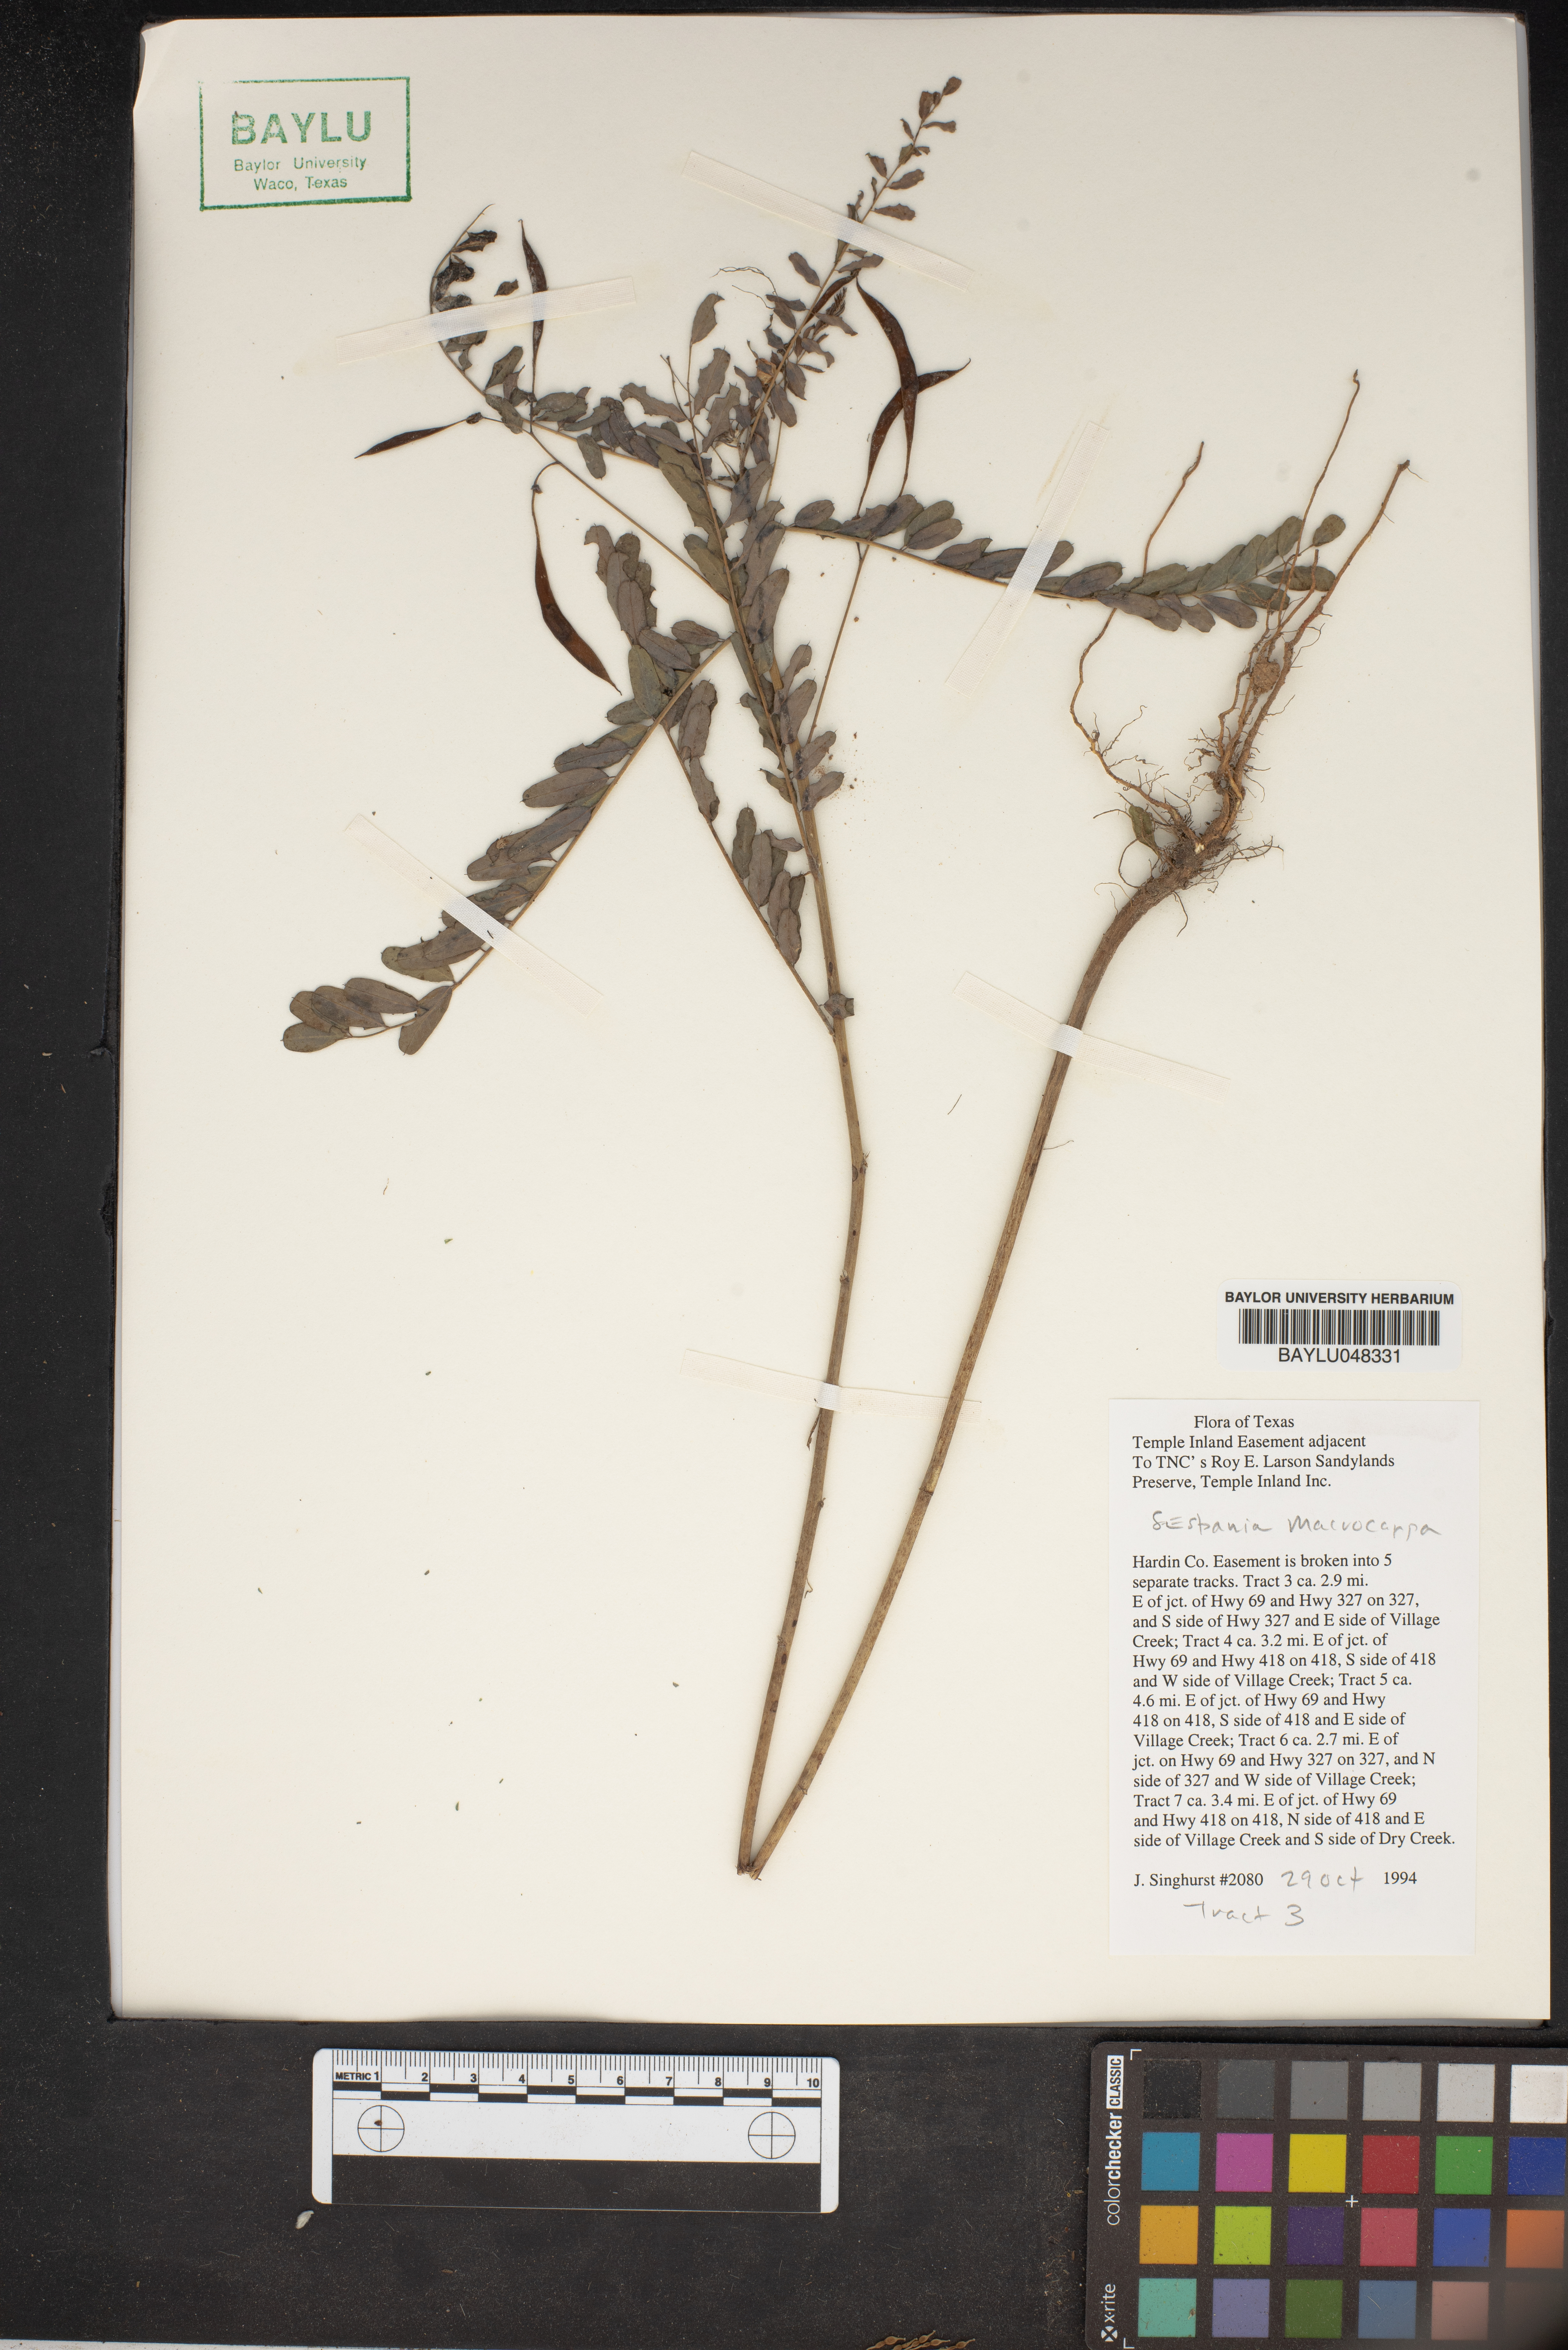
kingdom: Plantae
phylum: Tracheophyta
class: Magnoliopsida
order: Fabales
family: Fabaceae
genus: Sesbania
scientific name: Sesbania vesicaria
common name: Bagpod
